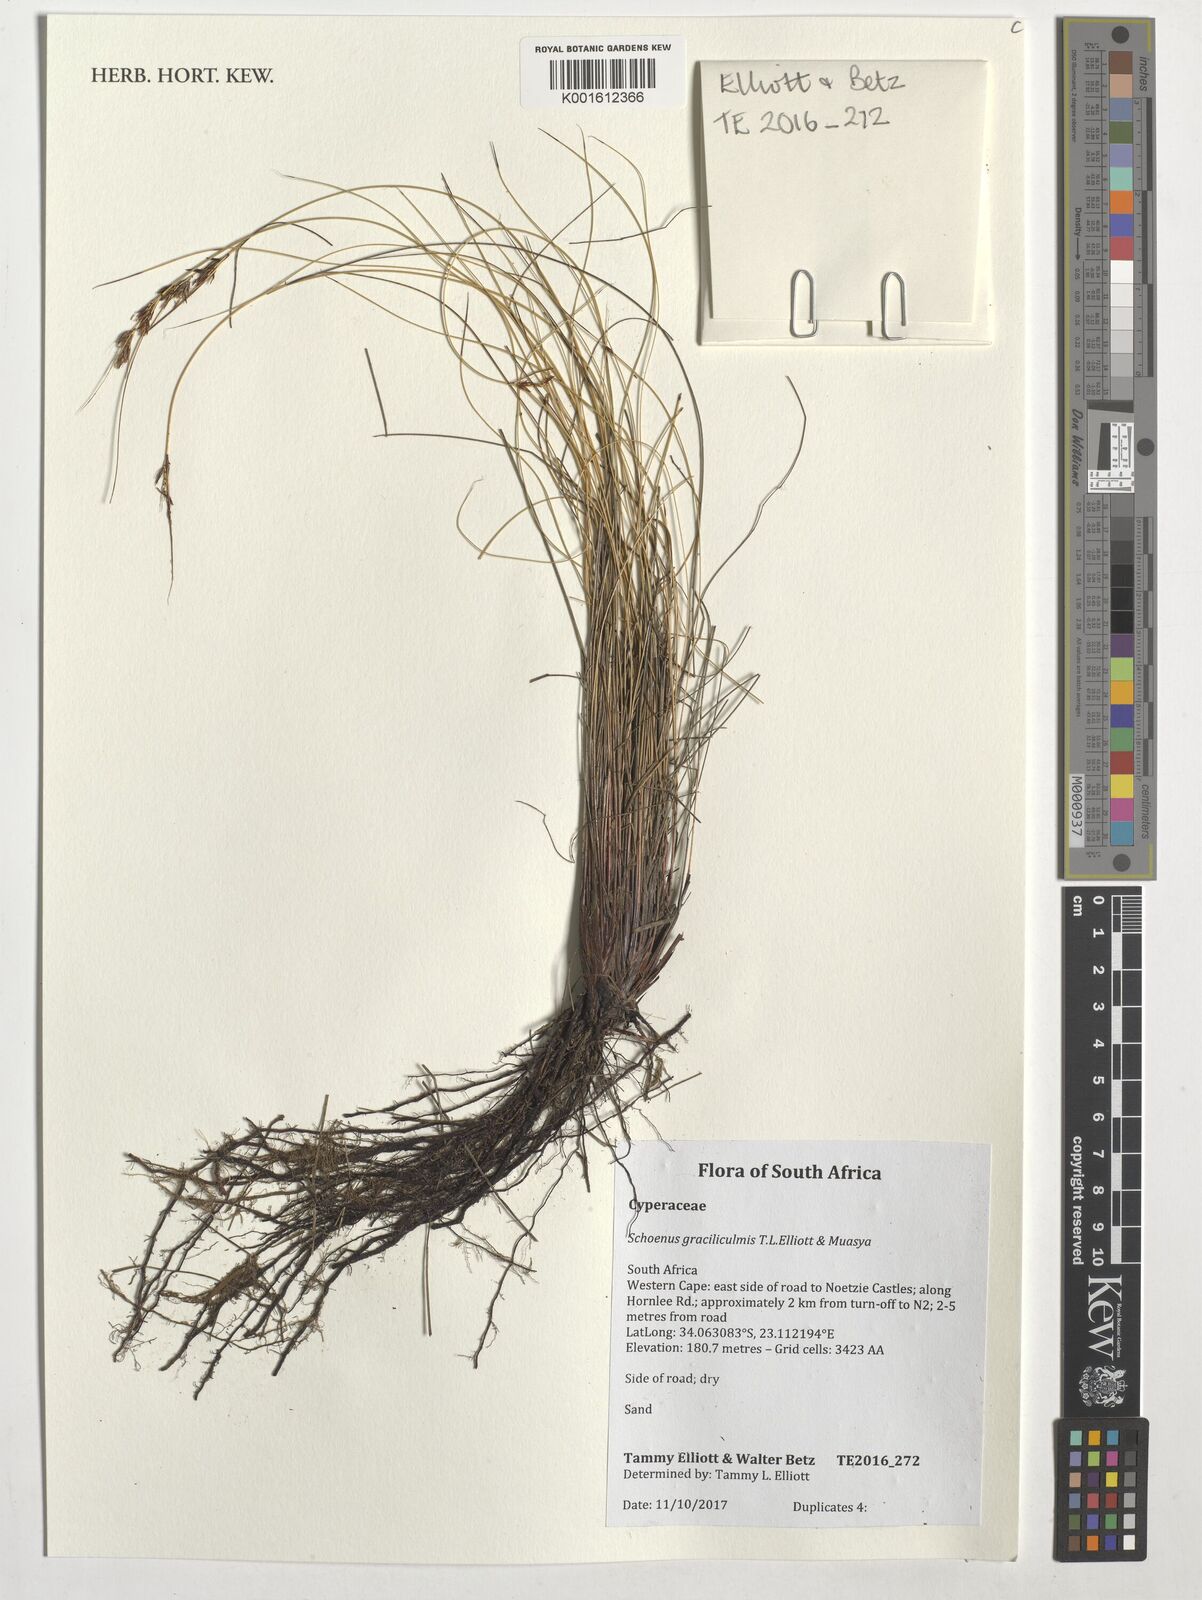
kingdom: Plantae
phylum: Tracheophyta
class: Liliopsida
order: Poales
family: Cyperaceae
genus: Schoenus
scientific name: Schoenus
